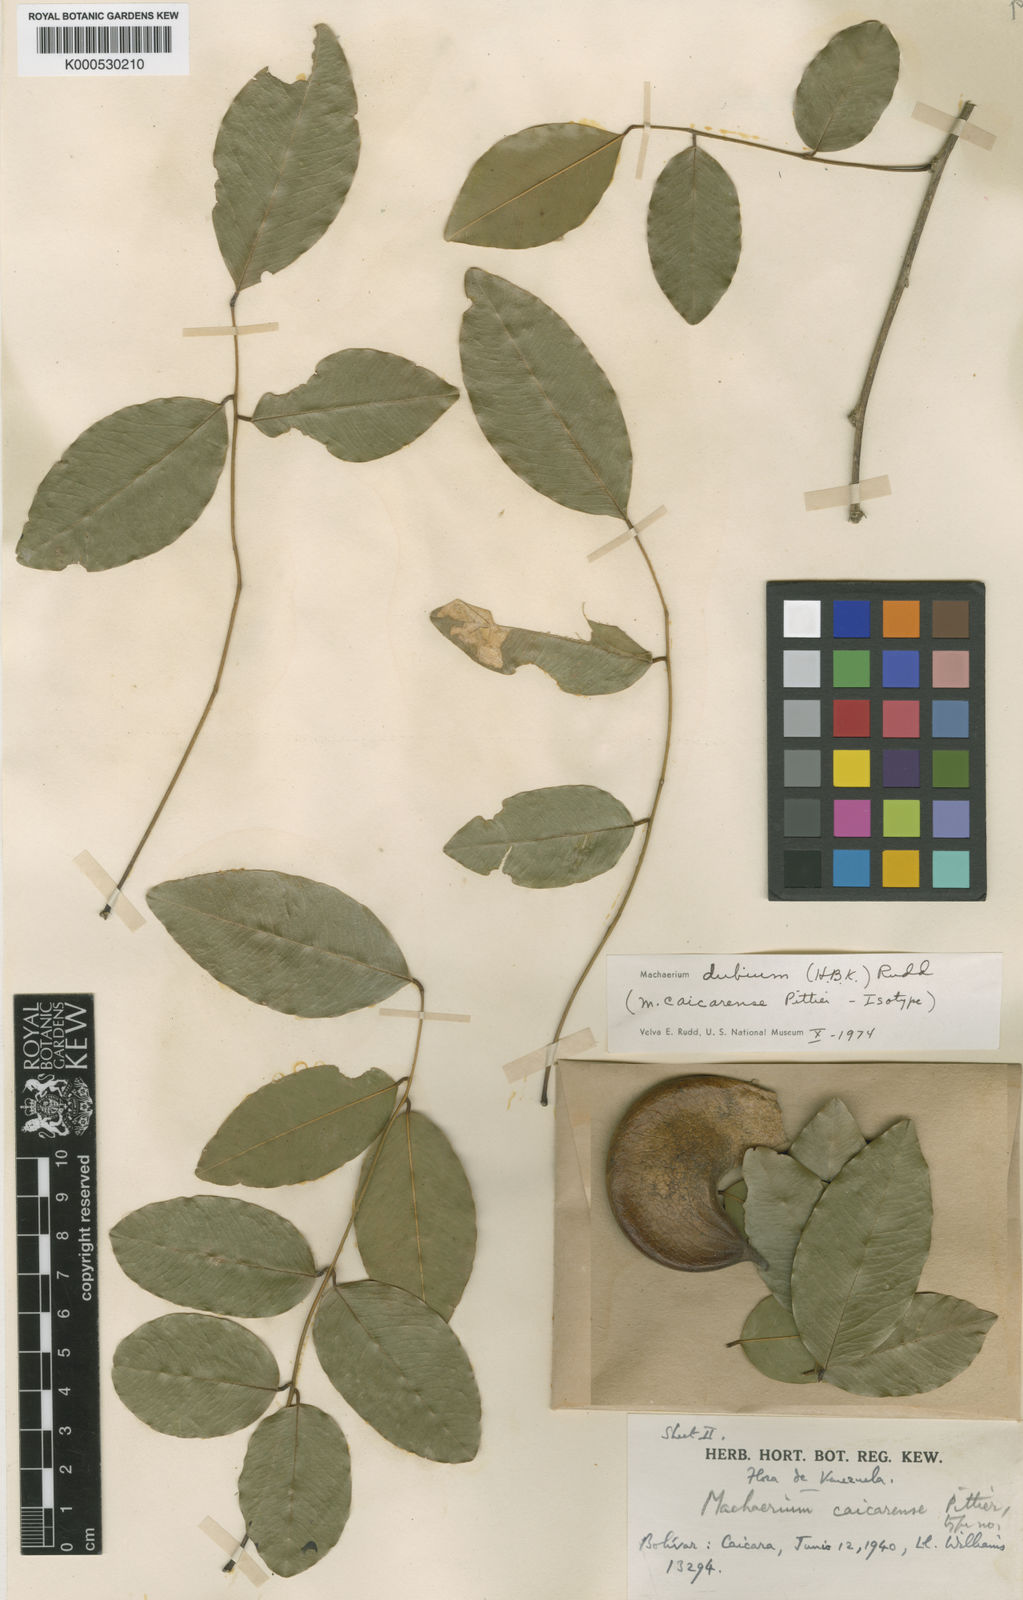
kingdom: Plantae
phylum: Tracheophyta
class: Magnoliopsida
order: Fabales
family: Fabaceae
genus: Machaerium
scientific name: Machaerium dubium
